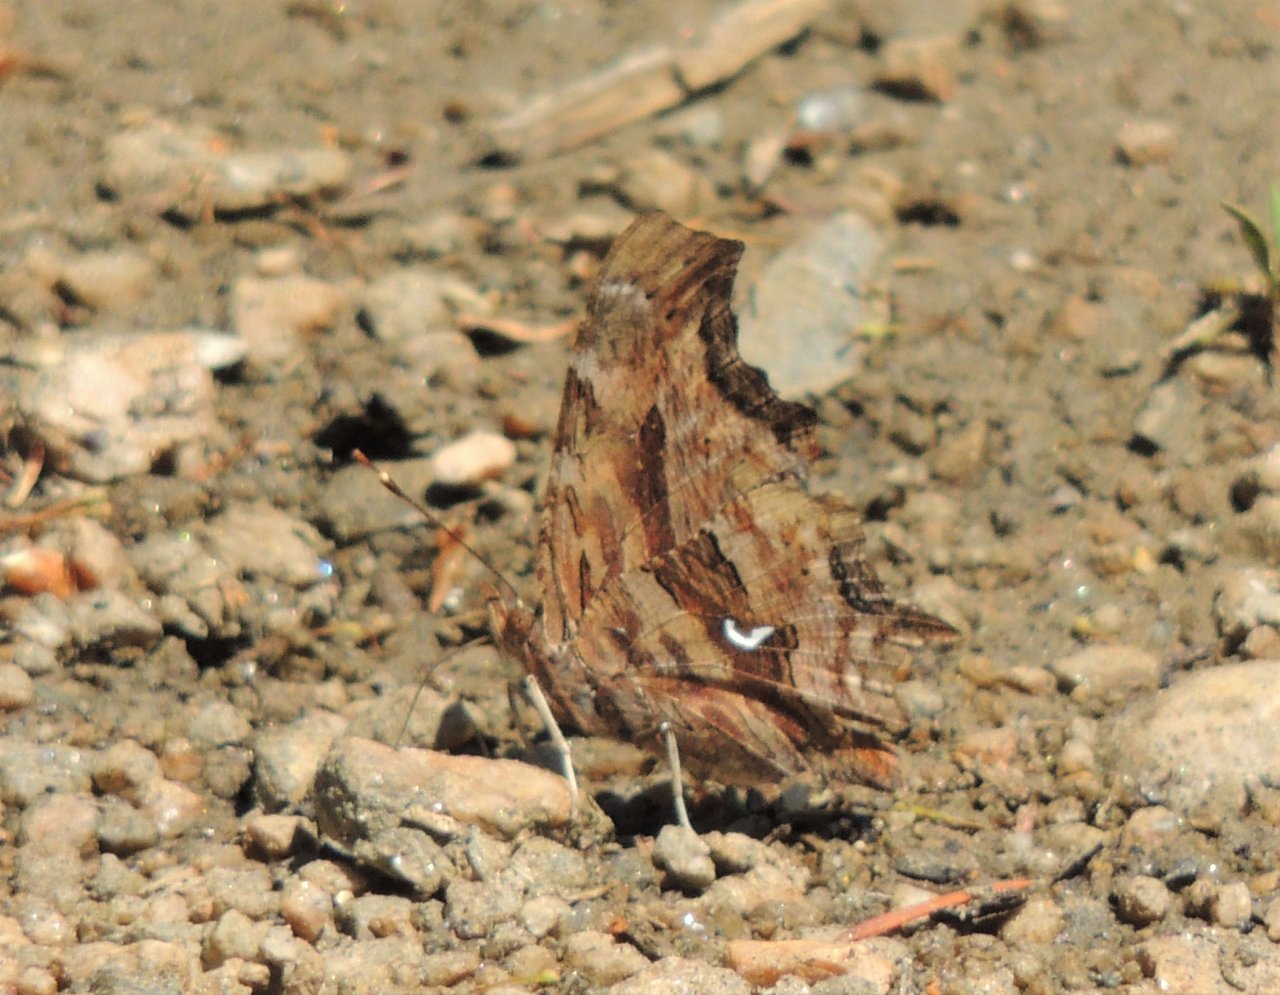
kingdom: Animalia
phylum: Arthropoda
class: Insecta
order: Lepidoptera
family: Nymphalidae
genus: Polygonia
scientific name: Polygonia satyrus
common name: Satyr Comma
